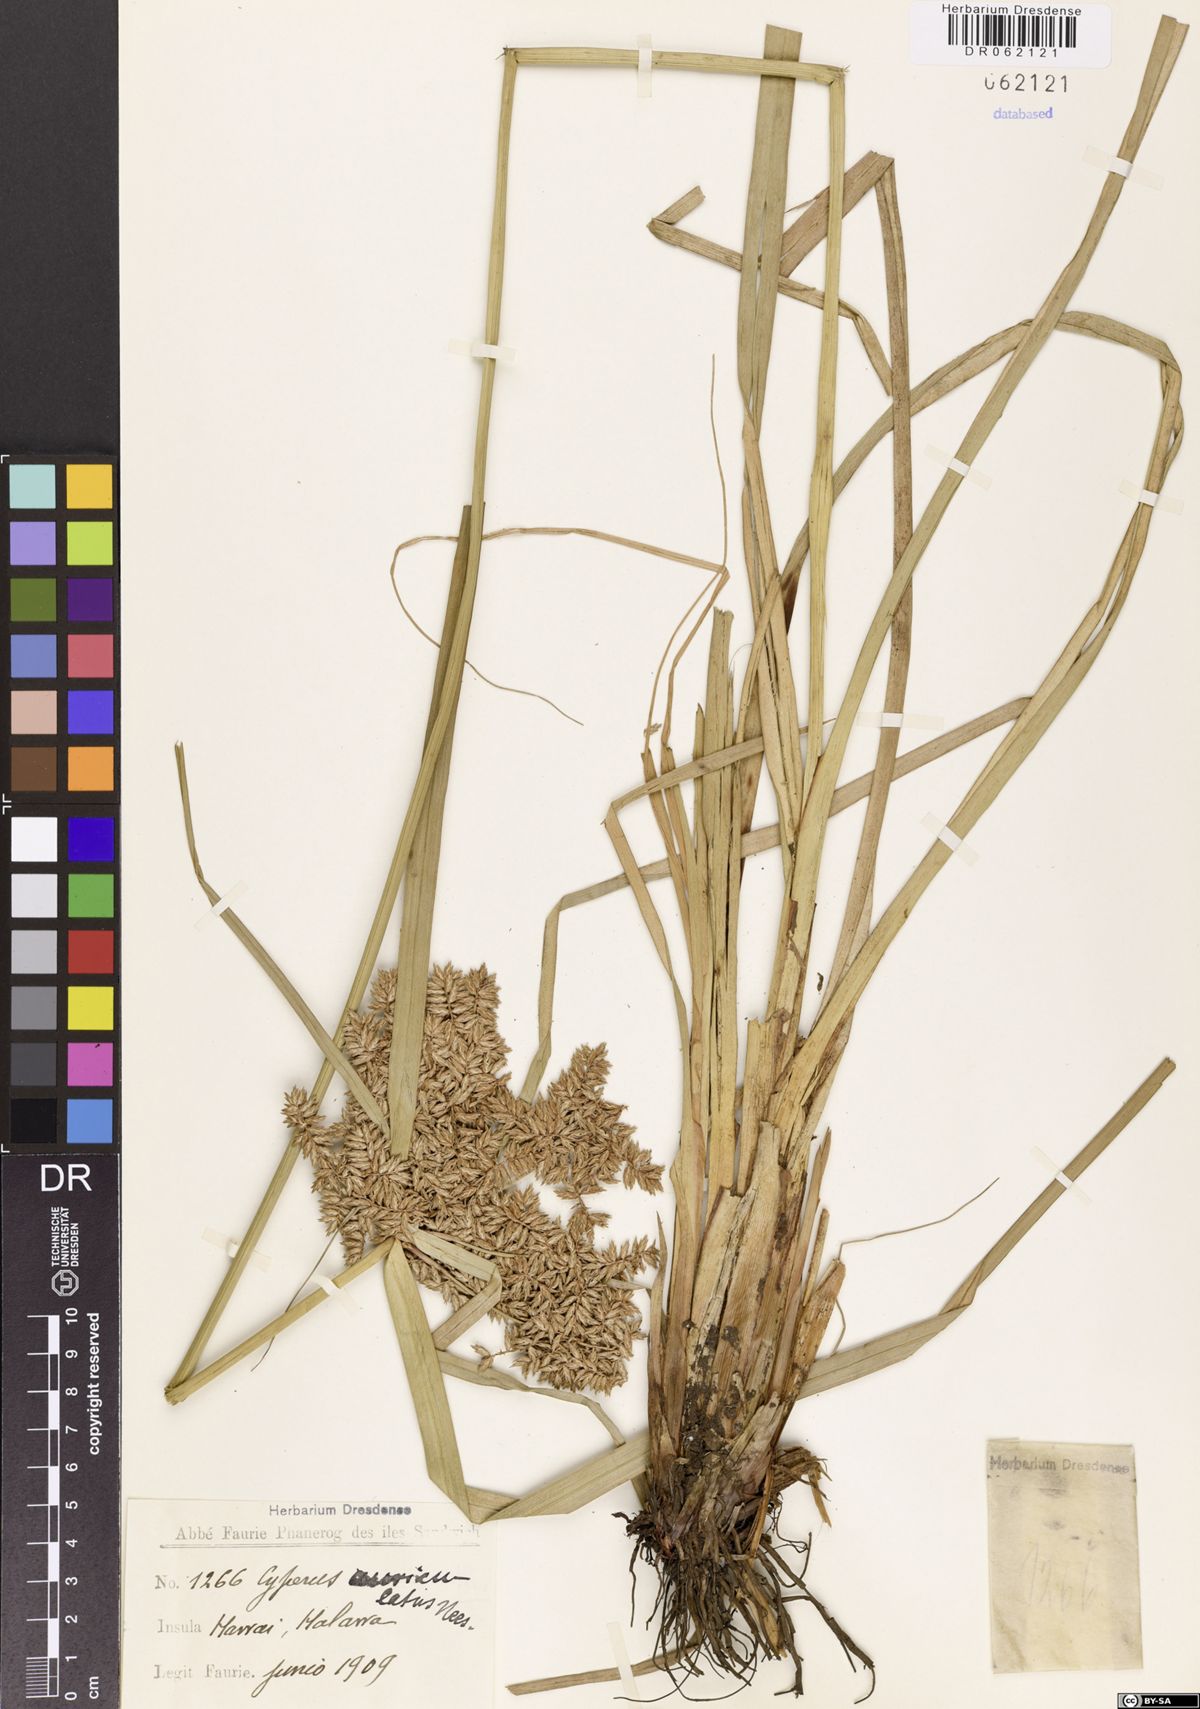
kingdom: Plantae
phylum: Tracheophyta
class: Liliopsida
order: Poales
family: Cyperaceae
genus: Cyperus
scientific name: Cyperus auriculatus
